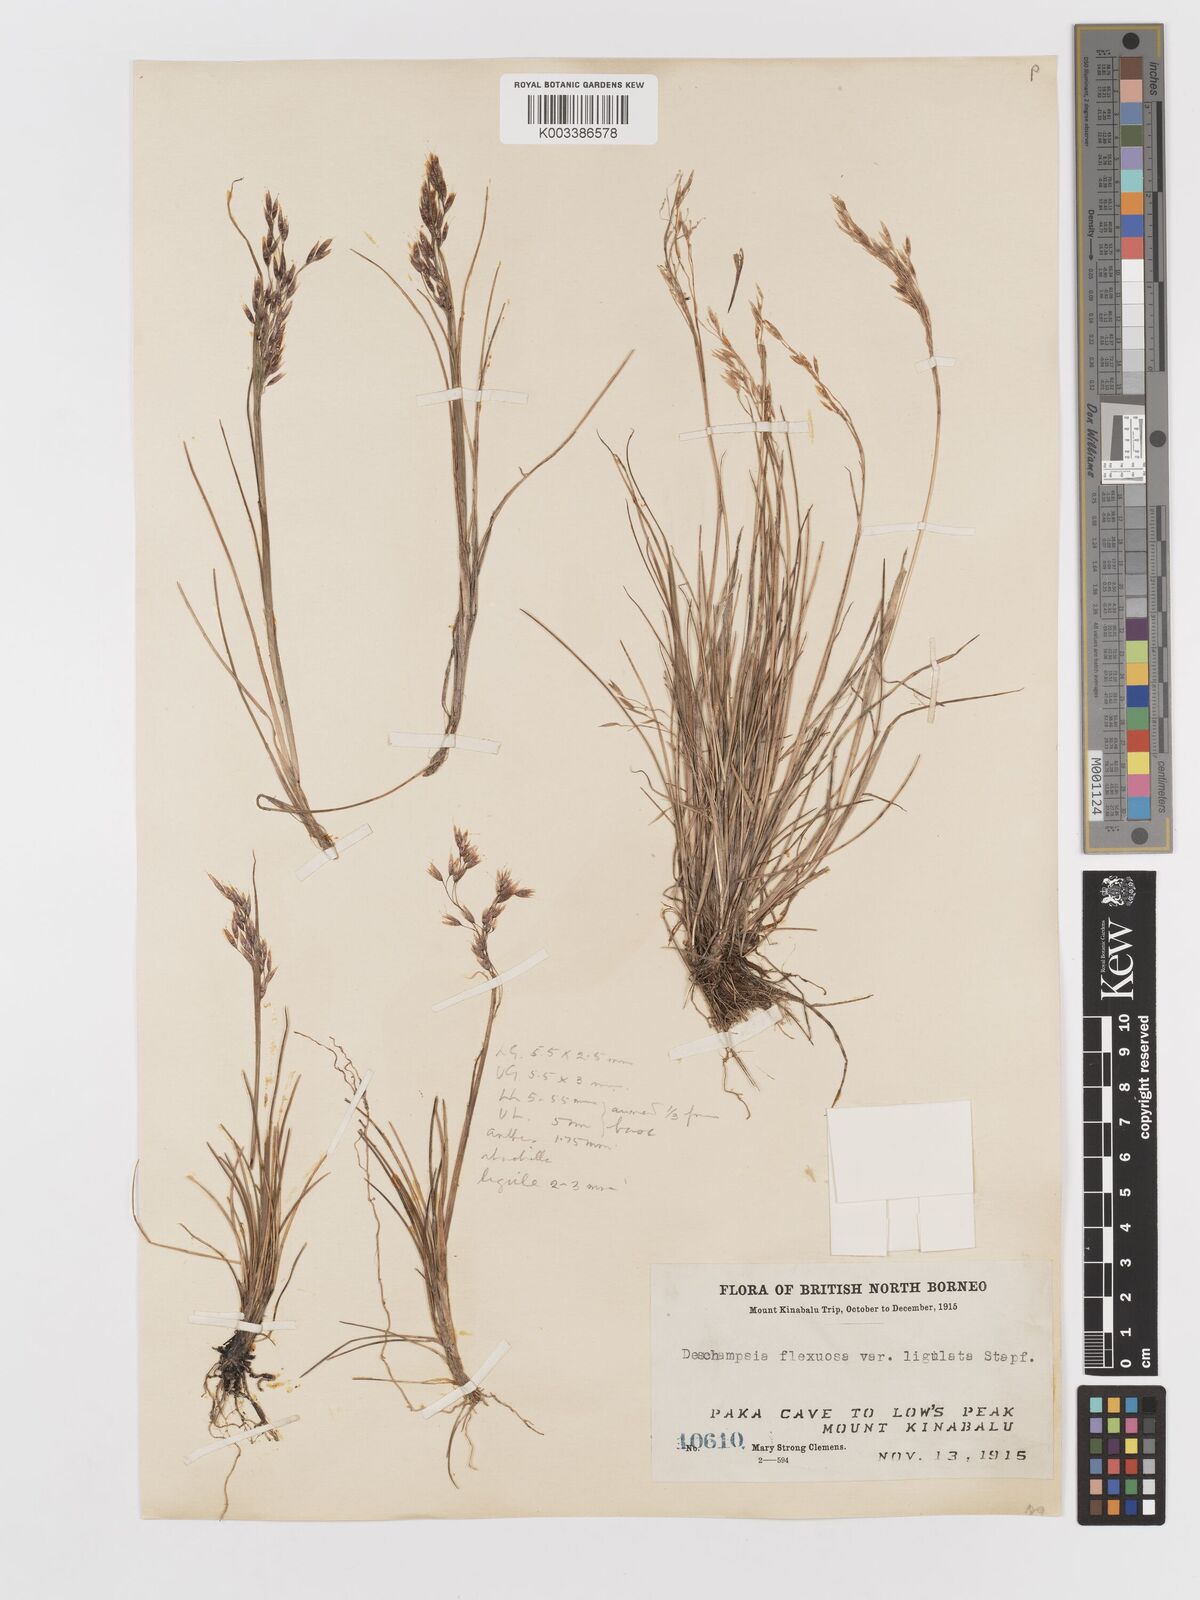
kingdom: Plantae
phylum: Tracheophyta
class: Liliopsida
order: Poales
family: Poaceae
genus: Avenella
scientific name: Avenella flexuosa
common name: Wavy hairgrass
